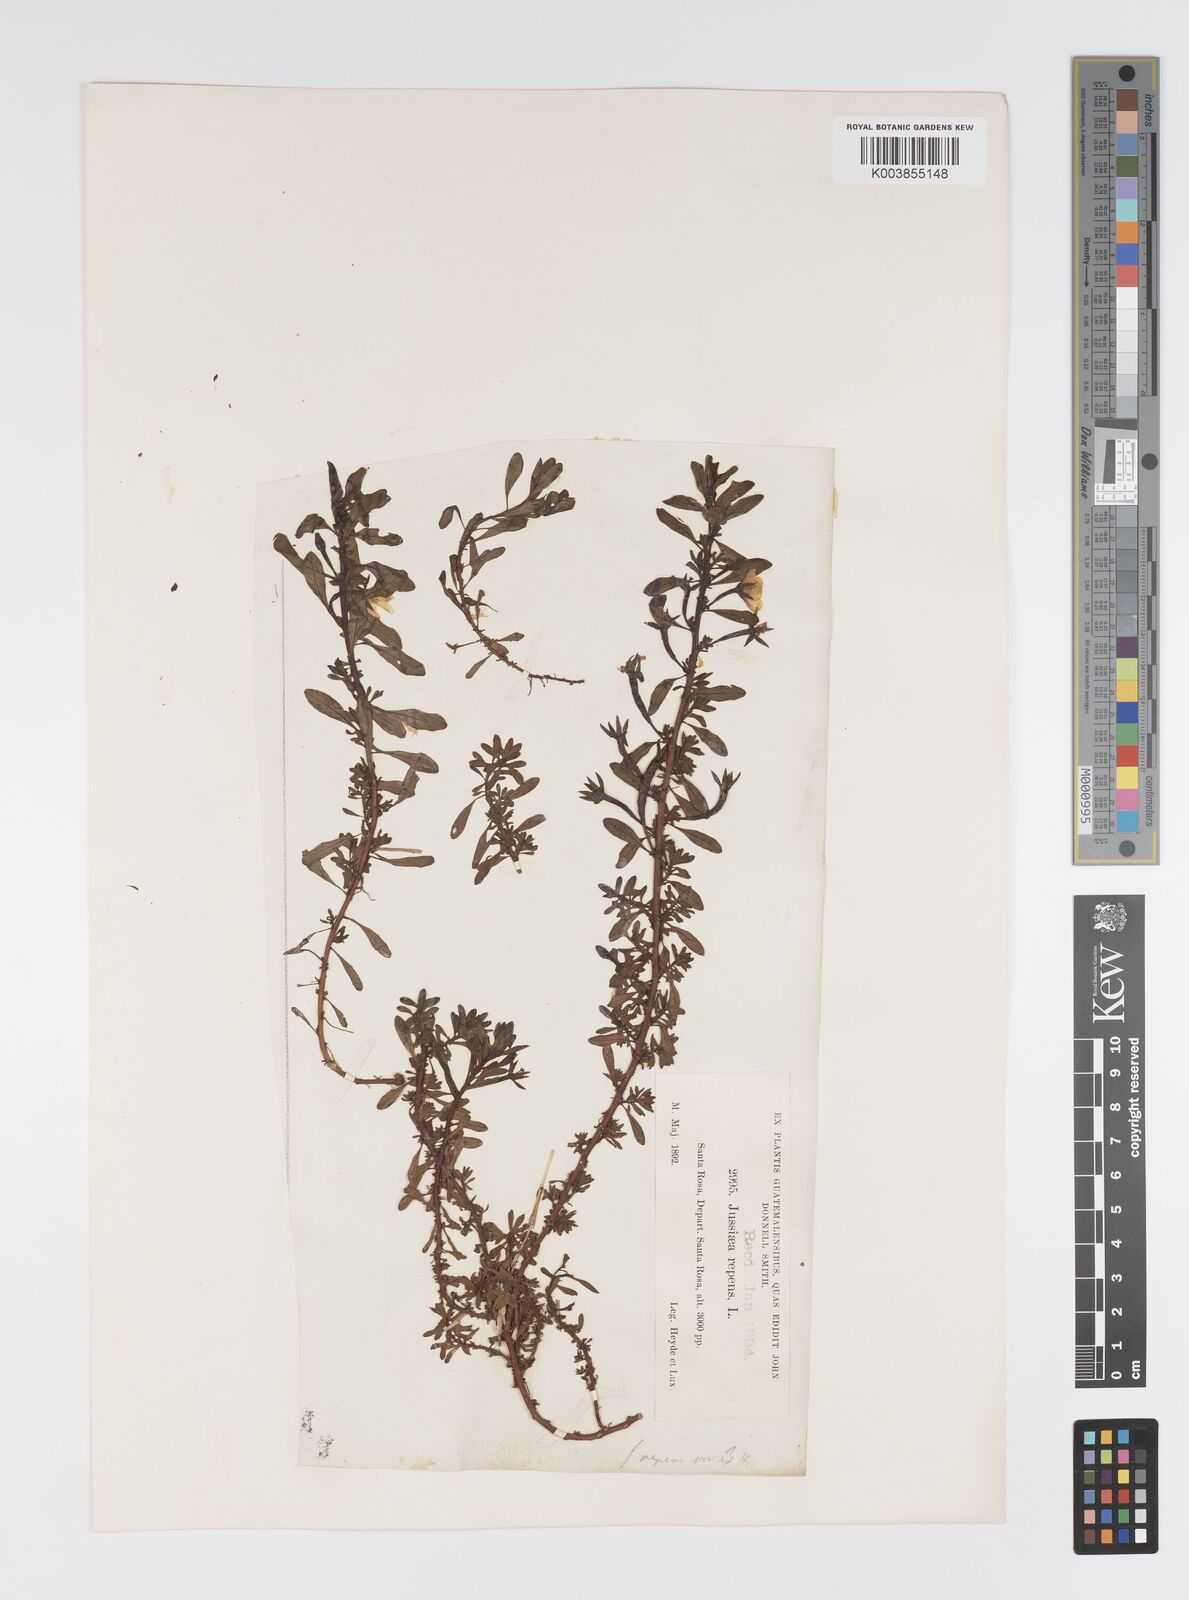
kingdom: Plantae
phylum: Tracheophyta
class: Magnoliopsida
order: Myrtales
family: Onagraceae
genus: Ludwigia
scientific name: Ludwigia adscendens
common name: Creeping water primrose
